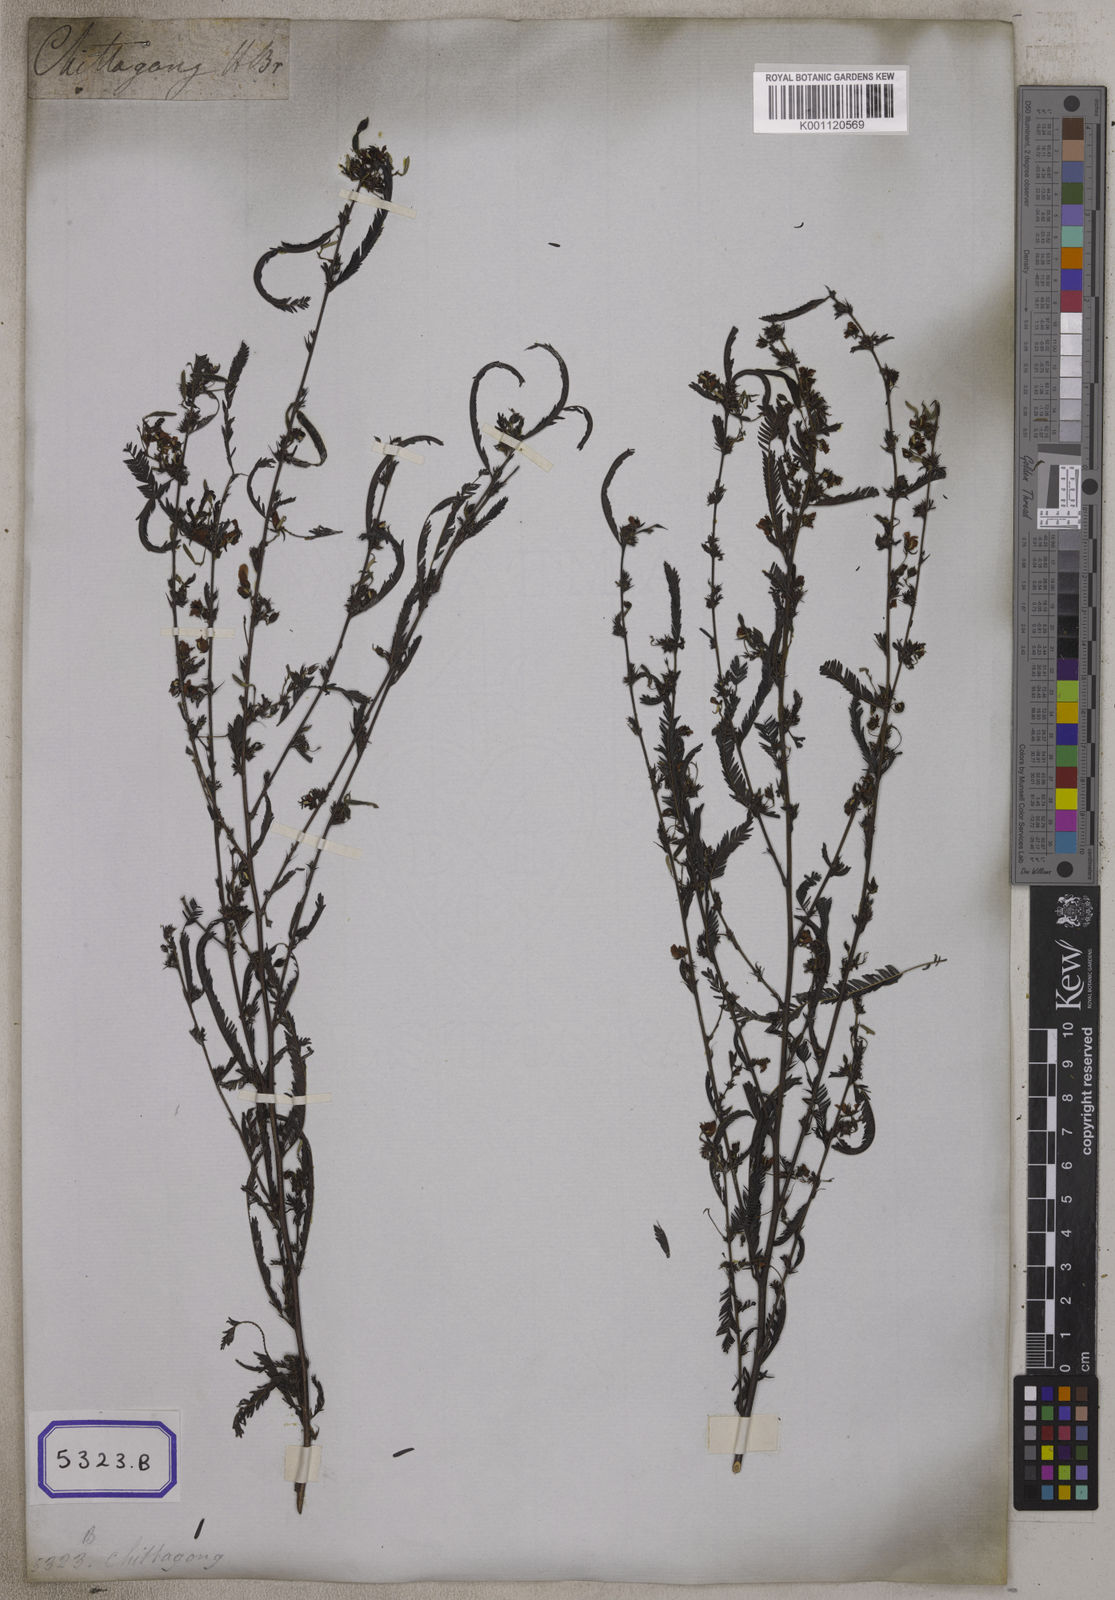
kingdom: Plantae
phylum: Tracheophyta
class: Magnoliopsida
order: Fabales
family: Fabaceae
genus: Chamaecrista
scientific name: Chamaecrista mimosoides
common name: Fish-bone cassia
